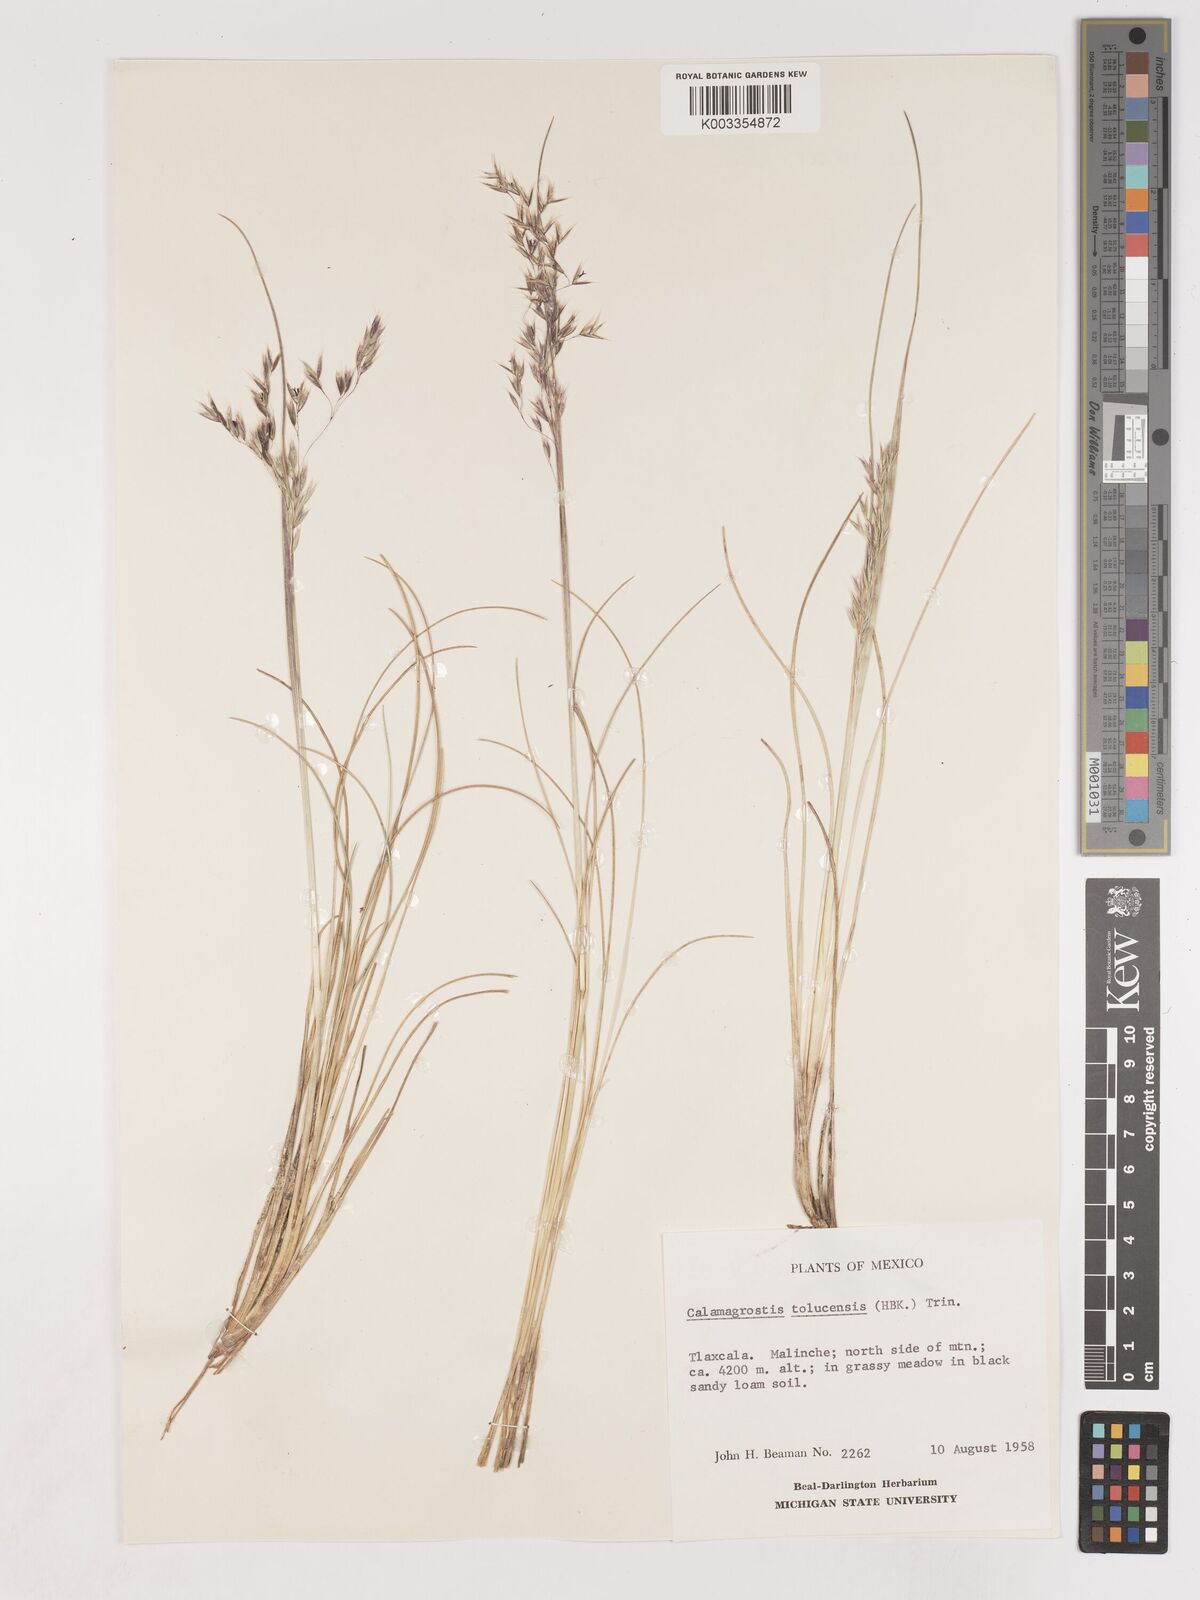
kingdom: Plantae
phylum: Tracheophyta
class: Liliopsida
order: Poales
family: Poaceae
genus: Peyritschia
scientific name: Peyritschia tolucensis
